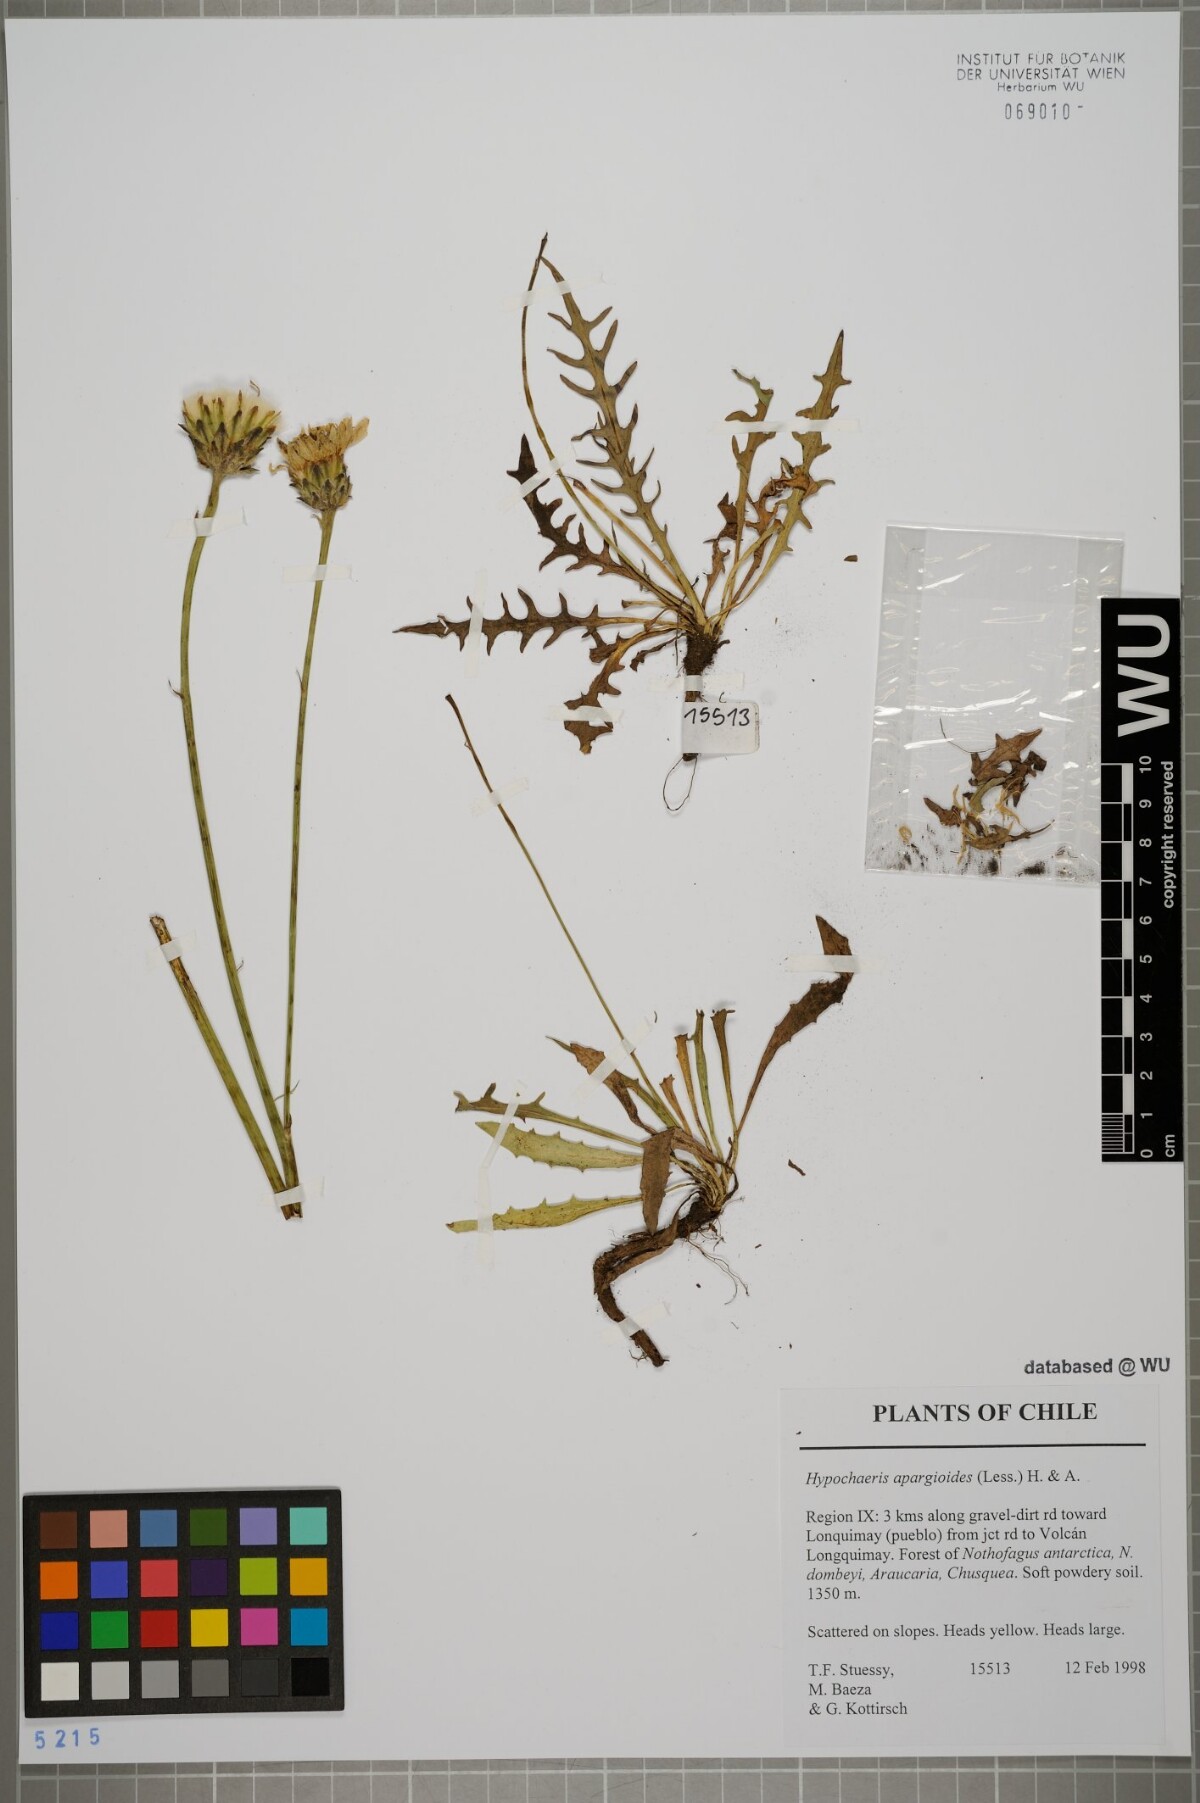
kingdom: Plantae
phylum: Tracheophyta
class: Magnoliopsida
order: Asterales
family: Asteraceae
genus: Hypochaeris
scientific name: Hypochaeris apargioides
